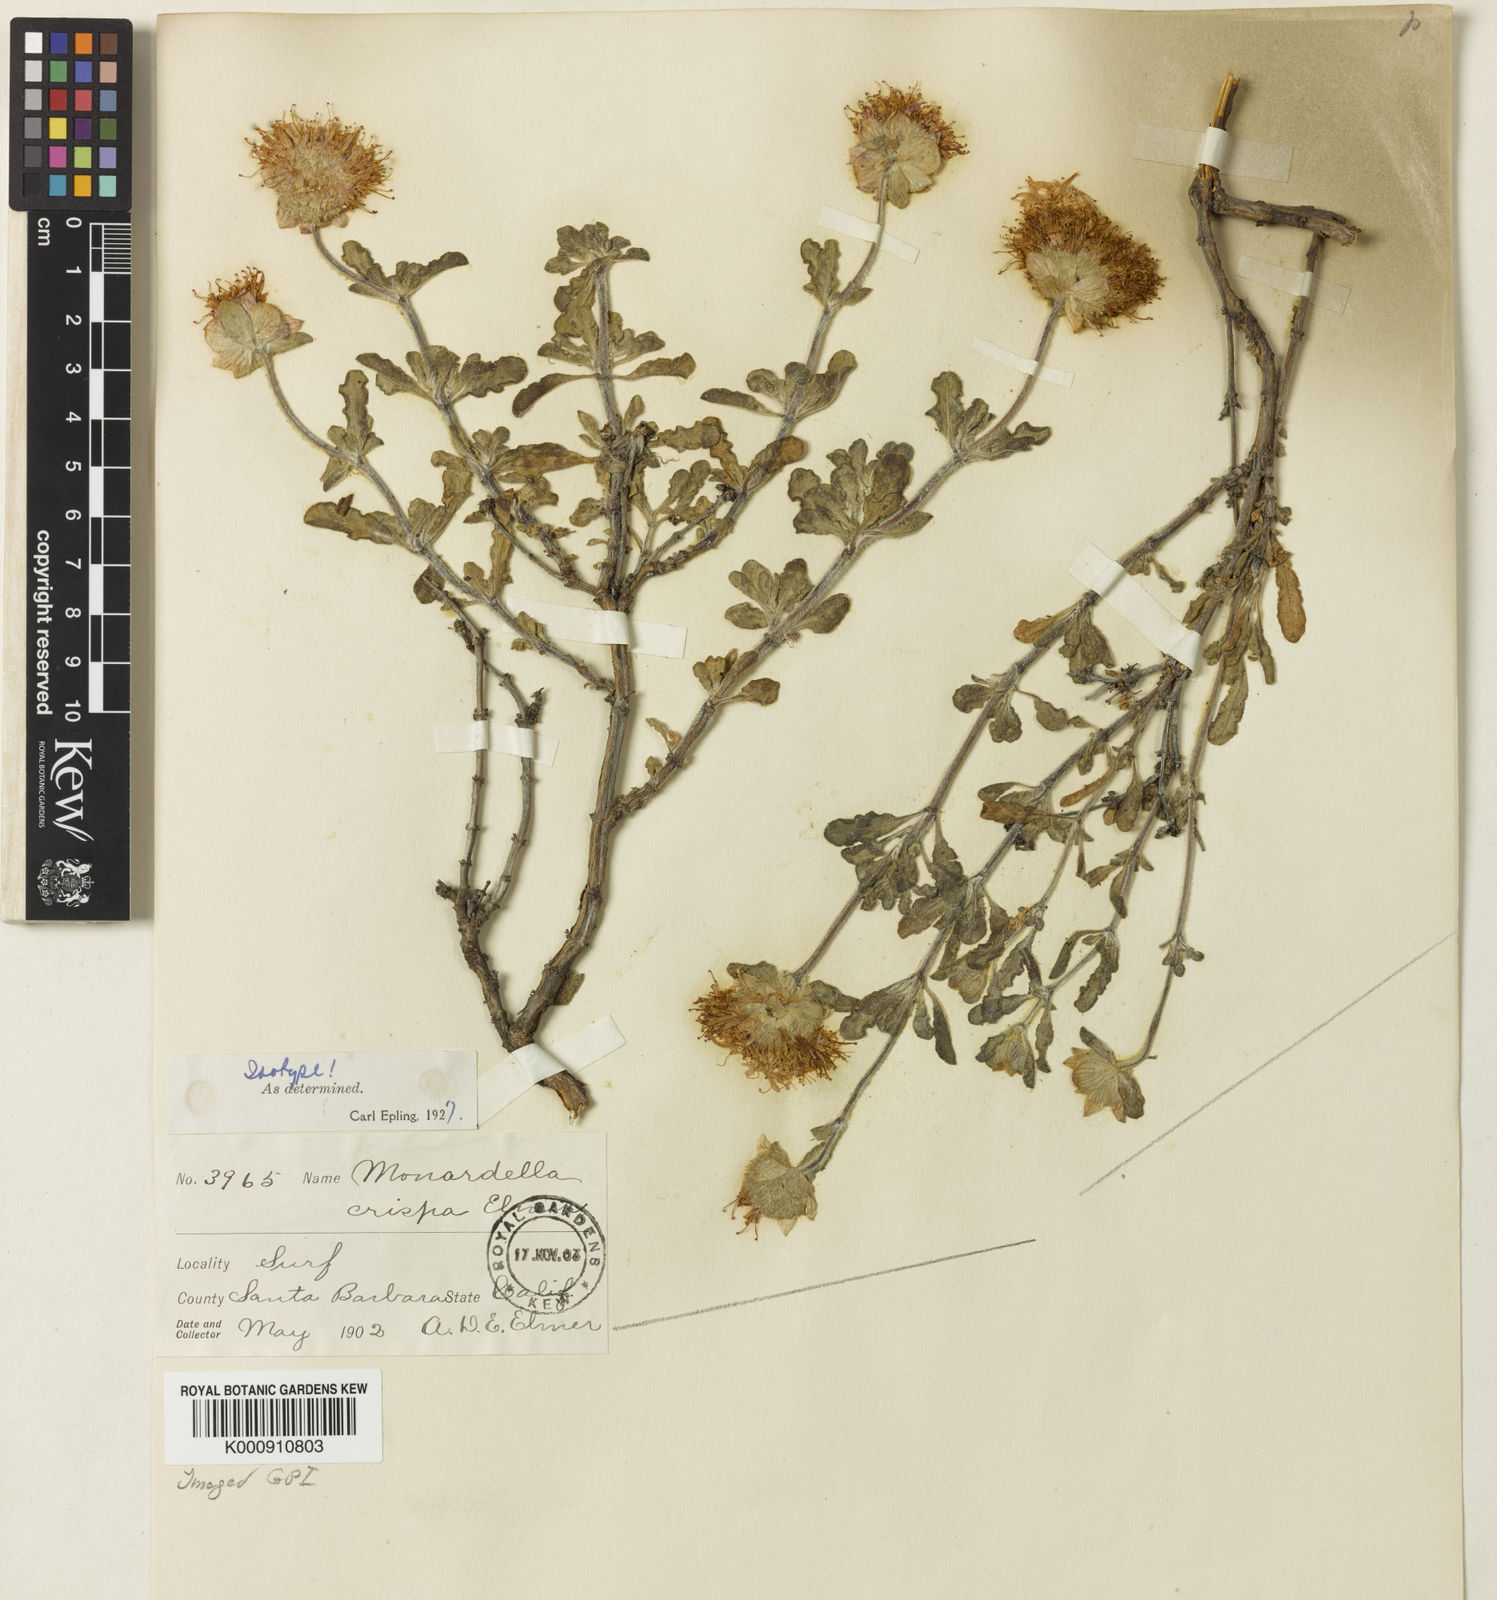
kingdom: Plantae
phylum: Tracheophyta
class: Magnoliopsida
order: Lamiales
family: Lamiaceae
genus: Monardella
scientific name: Monardella undulata
